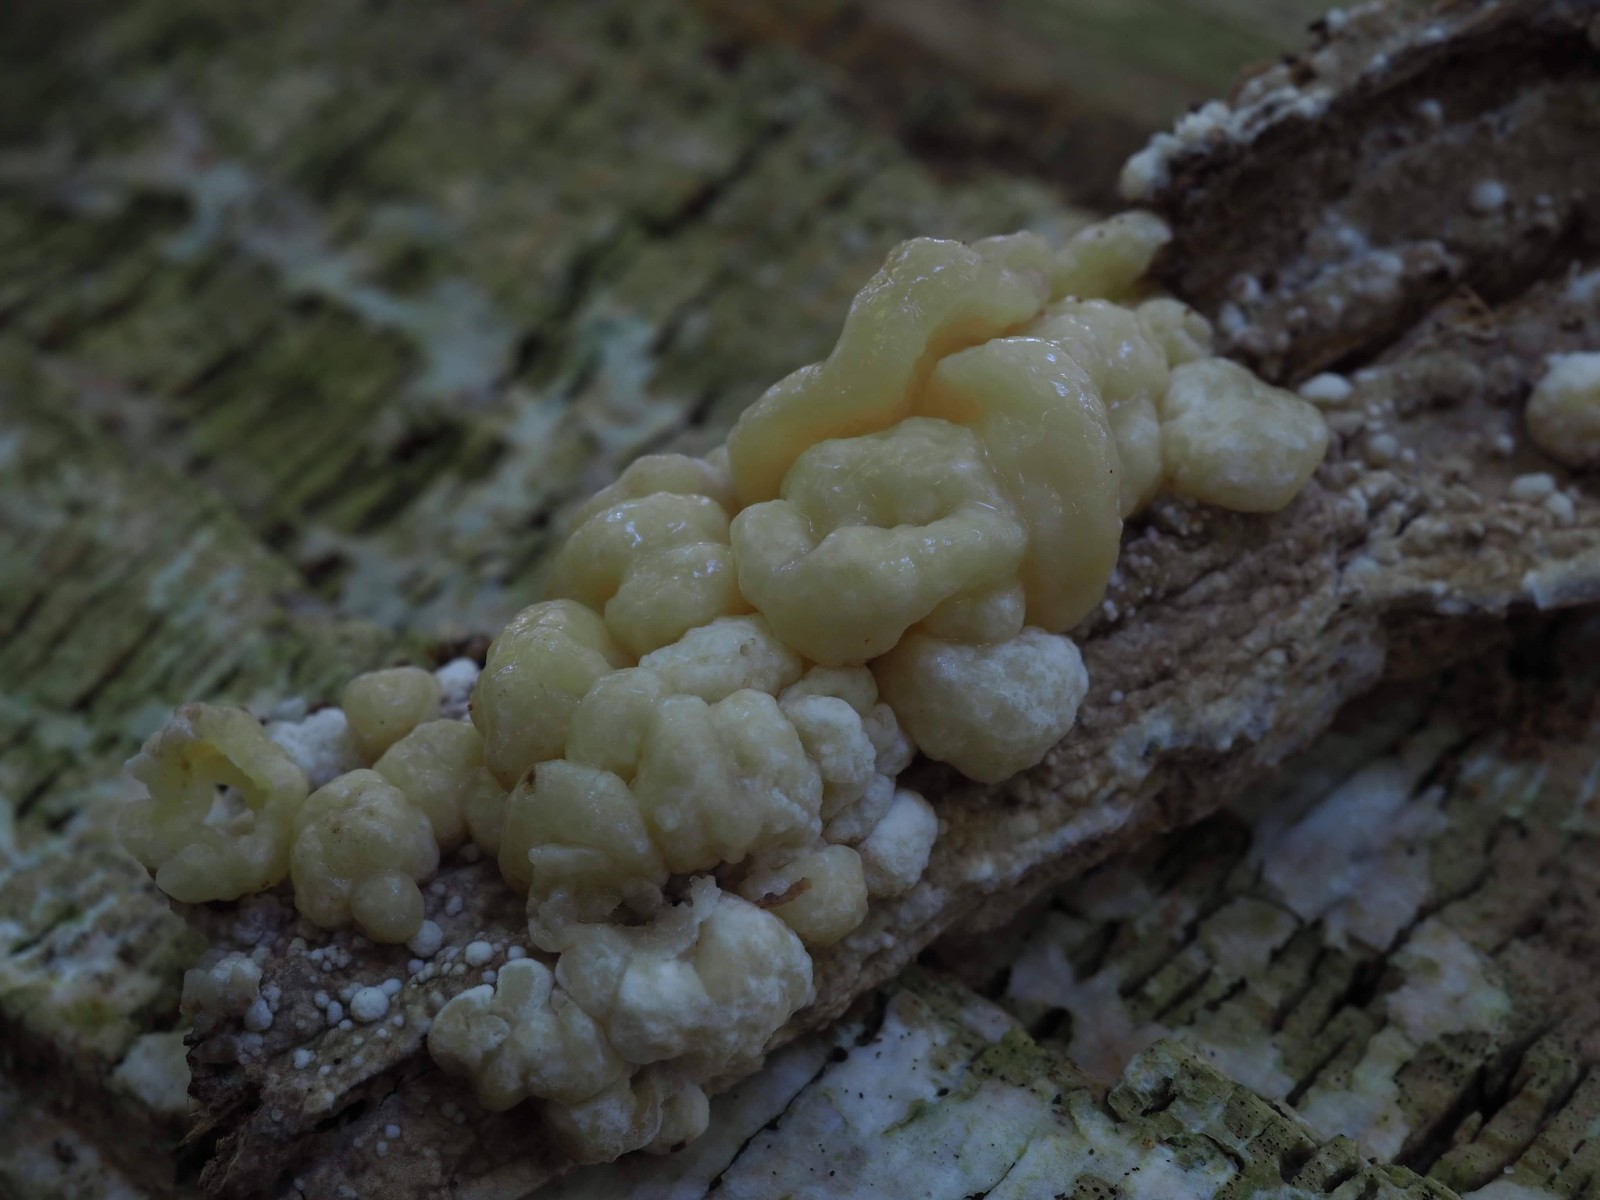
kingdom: Fungi
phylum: Ascomycota
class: Sordariomycetes
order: Xylariales
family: Hypoxylaceae
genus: Nodulisporium
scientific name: Nodulisporium cecidiogenes
